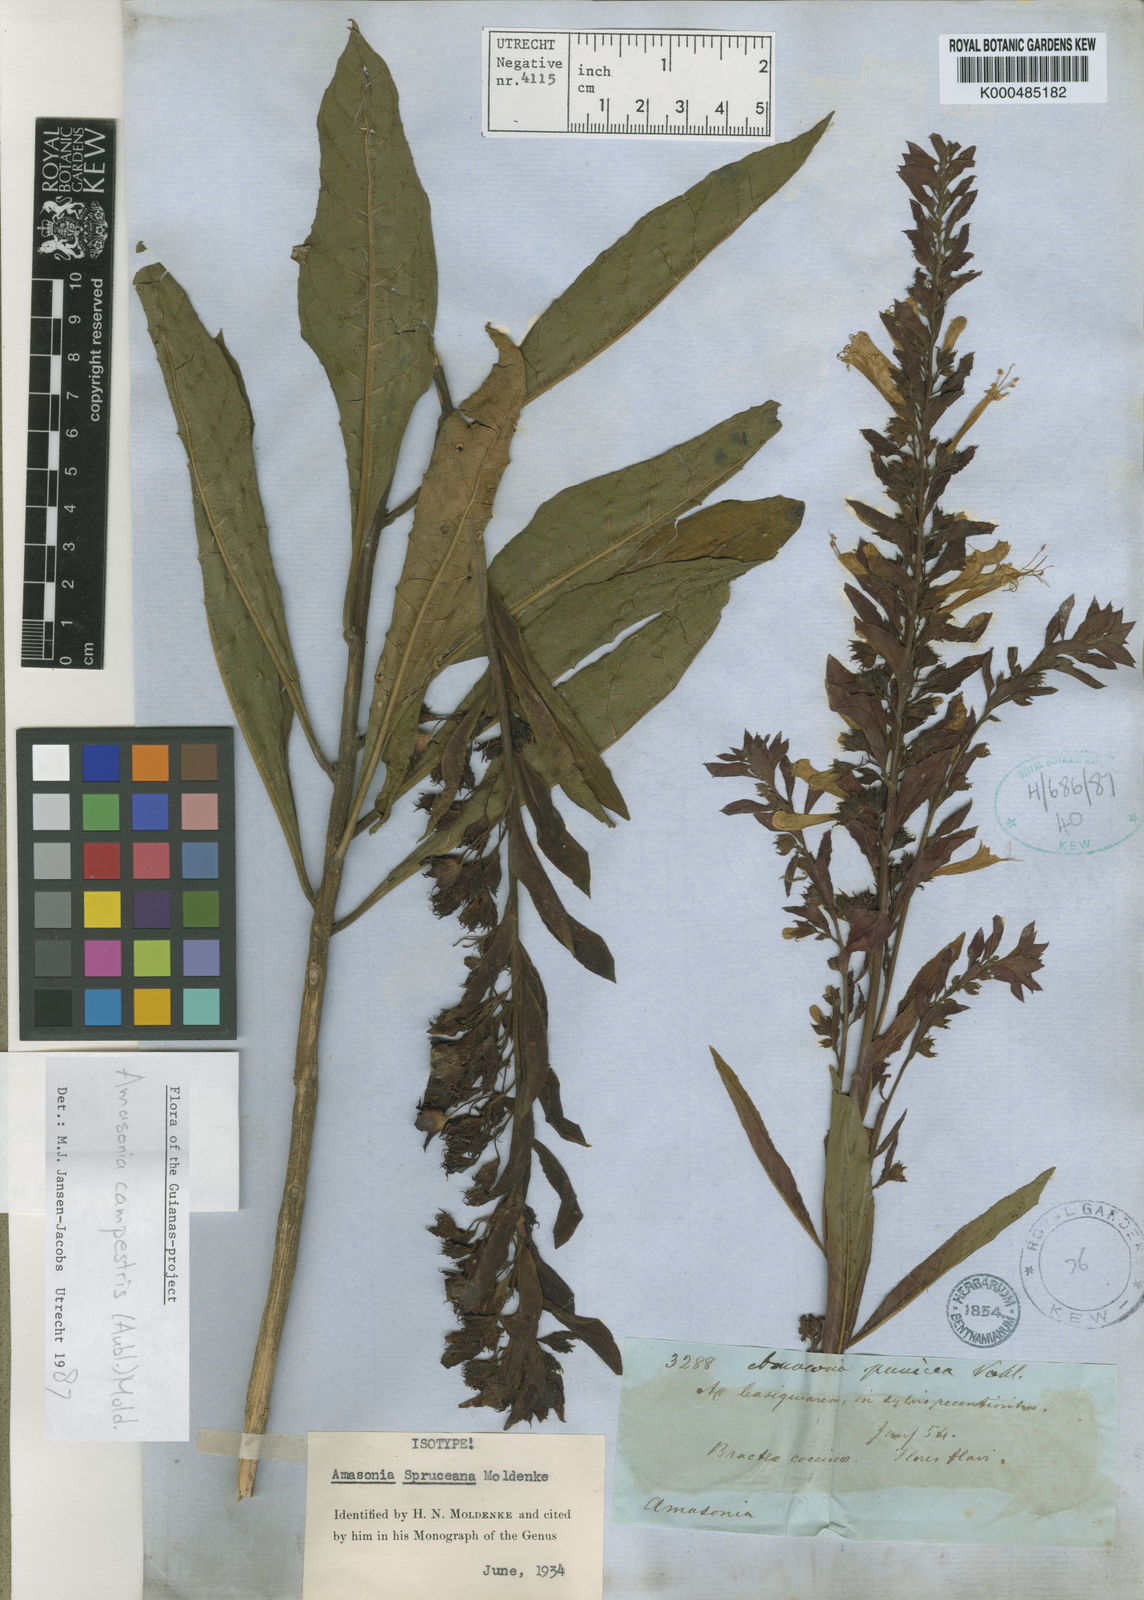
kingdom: Plantae
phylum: Tracheophyta
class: Magnoliopsida
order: Lamiales
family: Lamiaceae
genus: Amasonia
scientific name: Amasonia campestris
